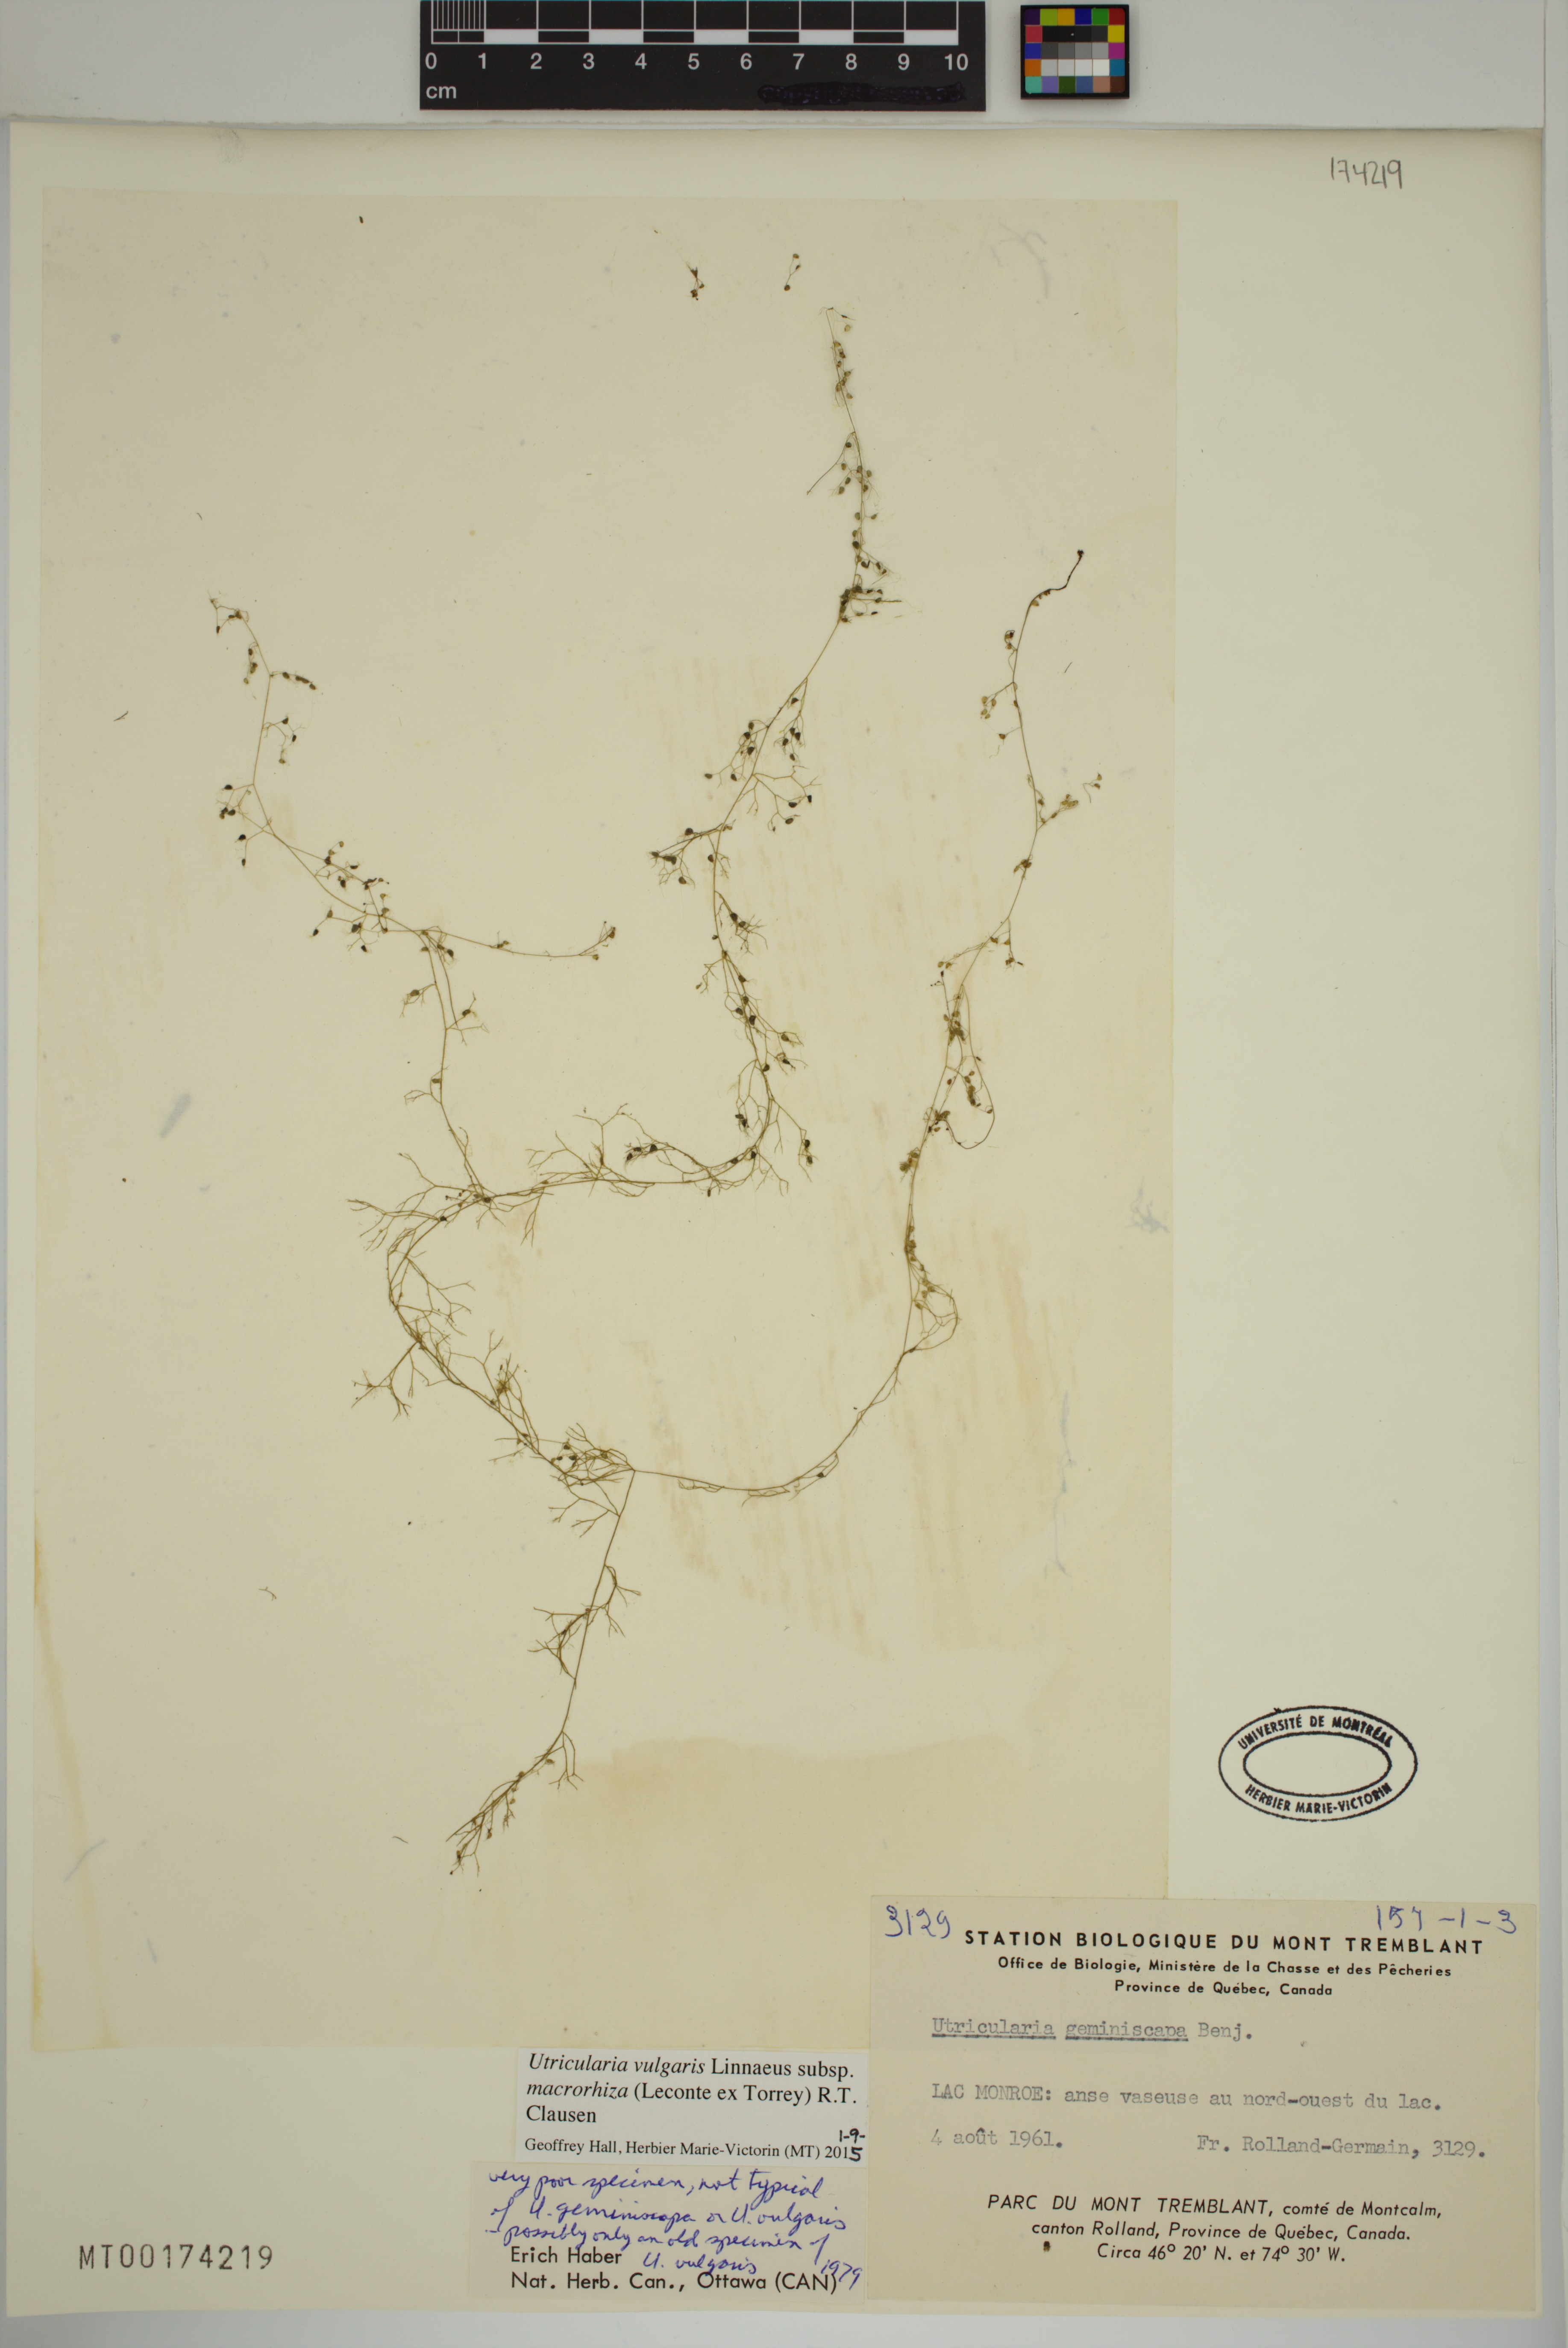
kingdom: Plantae
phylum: Tracheophyta
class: Magnoliopsida
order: Lamiales
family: Lentibulariaceae
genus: Utricularia
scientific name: Utricularia macrorhiza
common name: Common bladderwort
